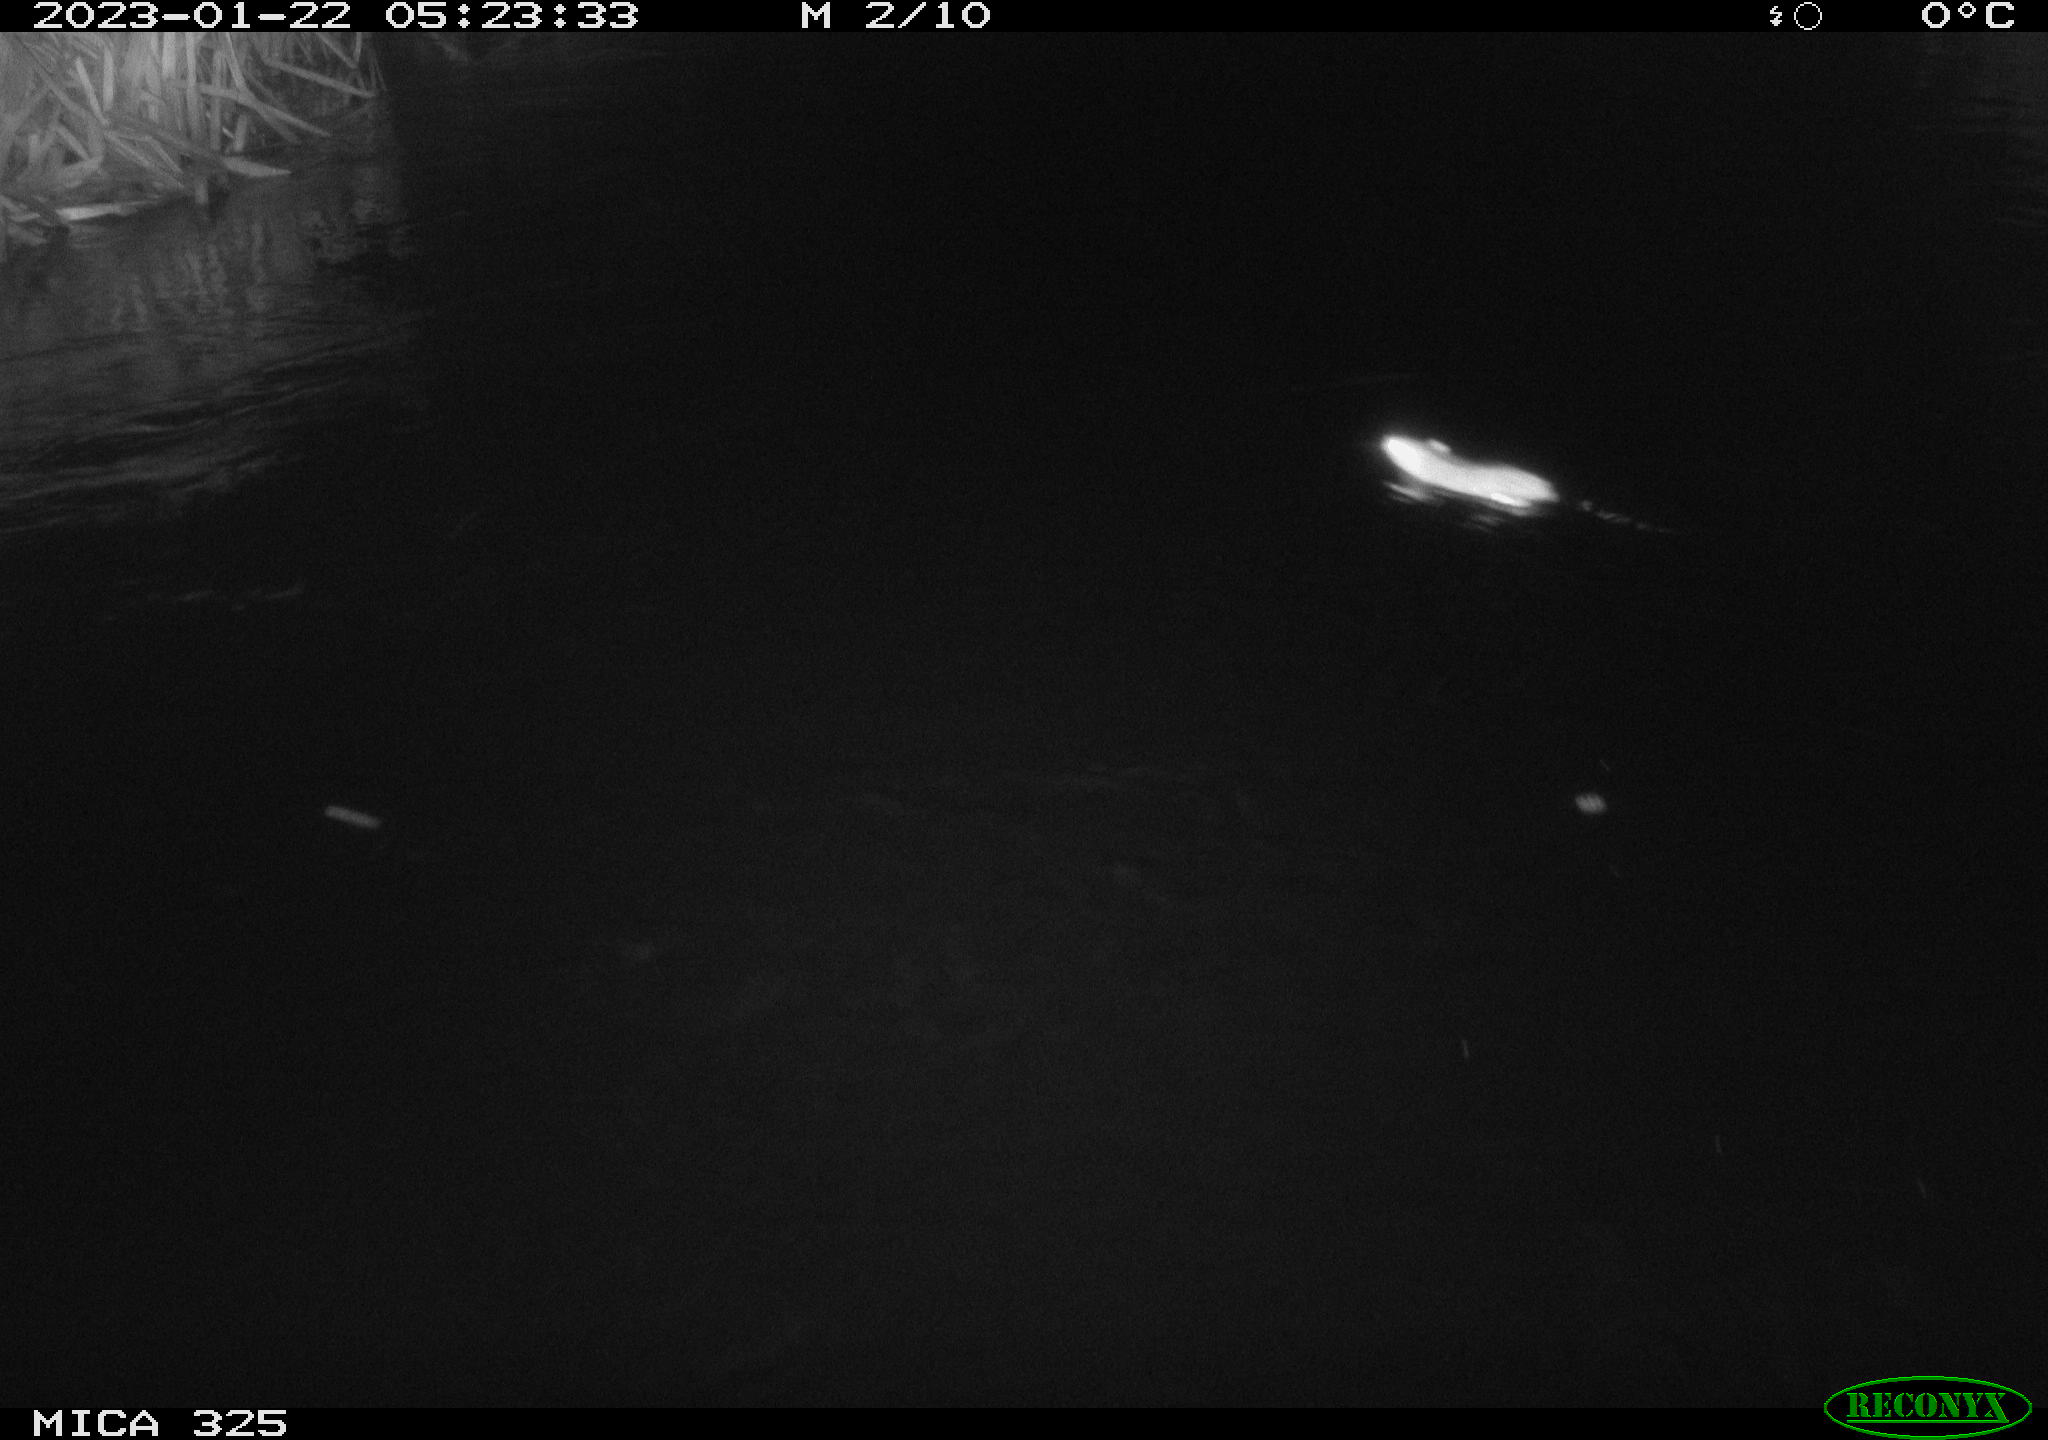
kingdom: Animalia
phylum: Chordata
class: Mammalia
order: Rodentia
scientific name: Rodentia
